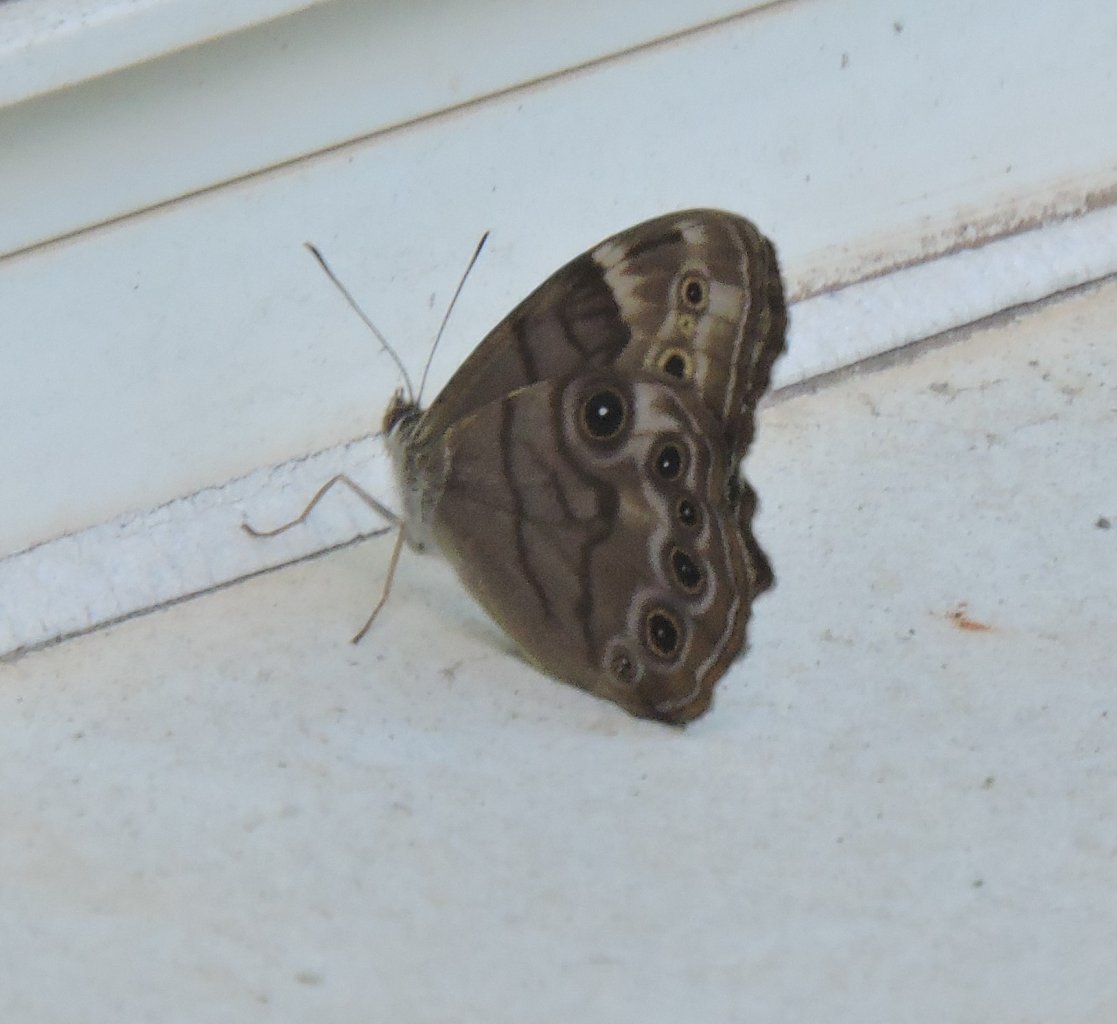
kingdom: Animalia
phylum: Arthropoda
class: Insecta
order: Lepidoptera
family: Nymphalidae
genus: Lethe
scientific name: Lethe anthedon
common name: Northern Pearly-Eye
